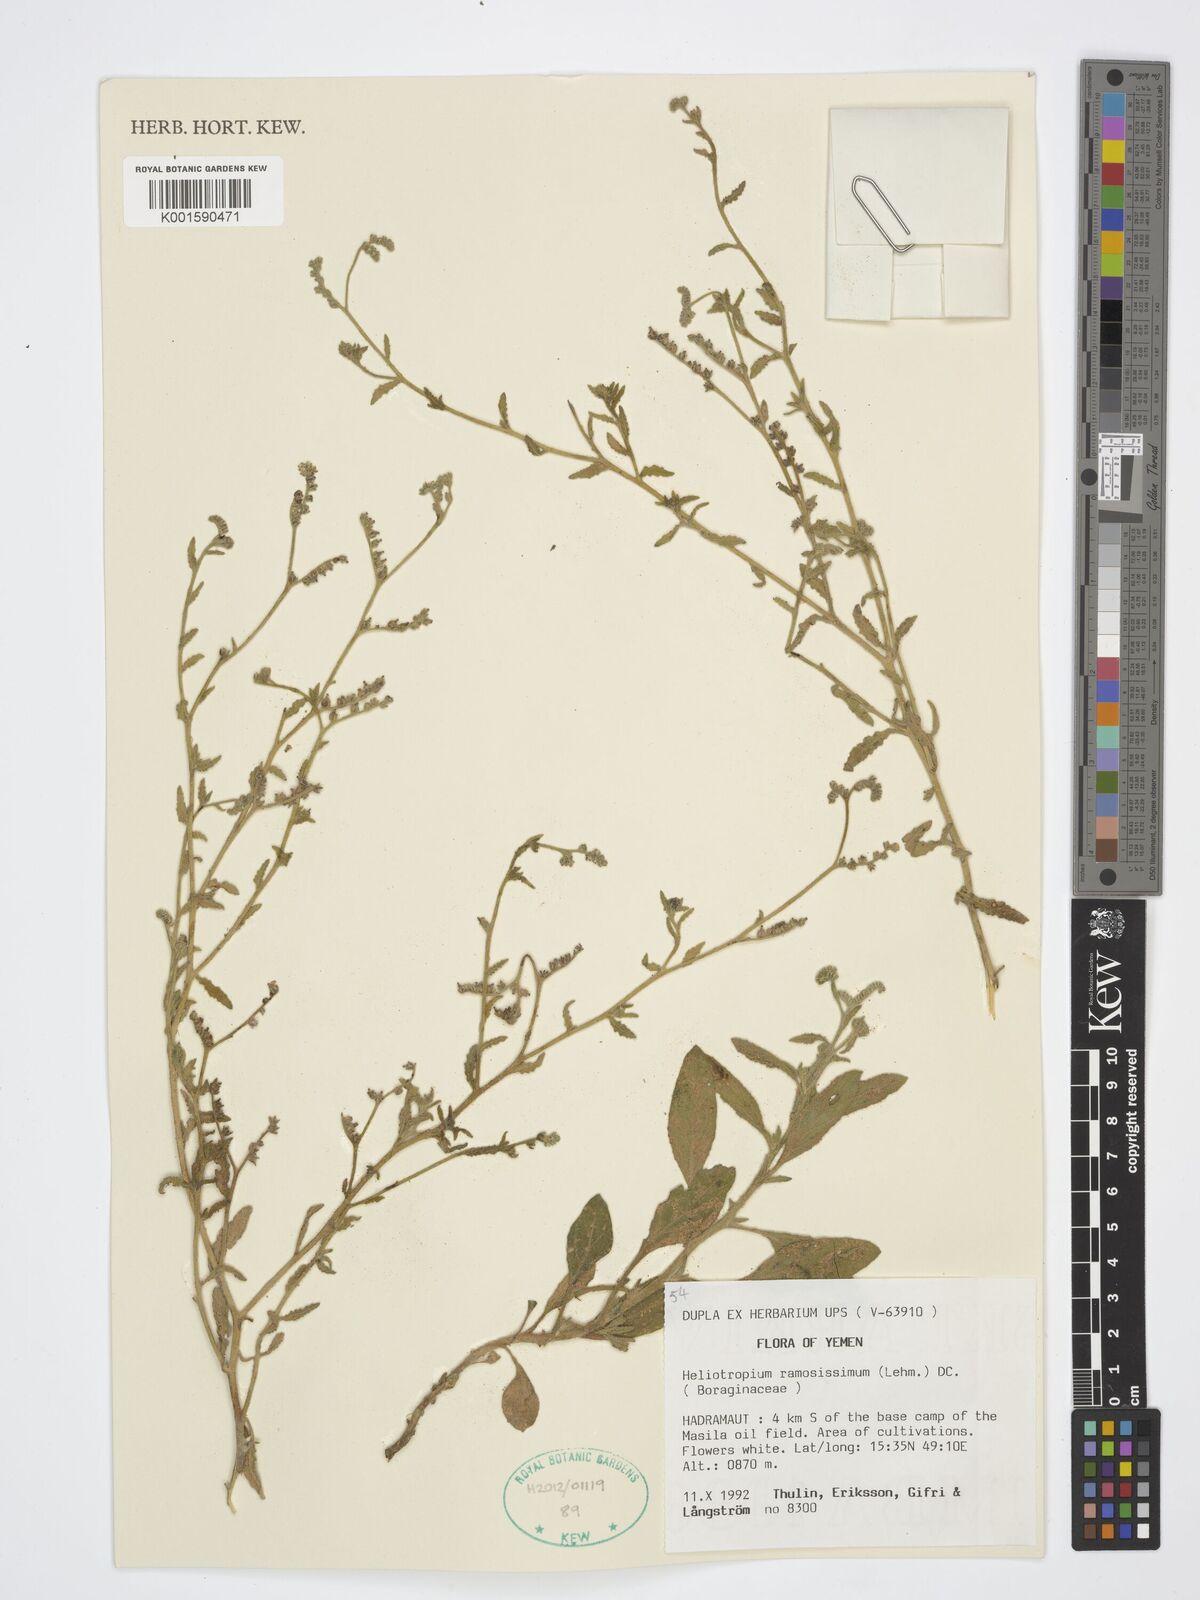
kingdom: Plantae
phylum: Tracheophyta
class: Magnoliopsida
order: Boraginales
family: Heliotropiaceae
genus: Heliotropium
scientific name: Heliotropium ramosissimum
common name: Wavy heliotrope
